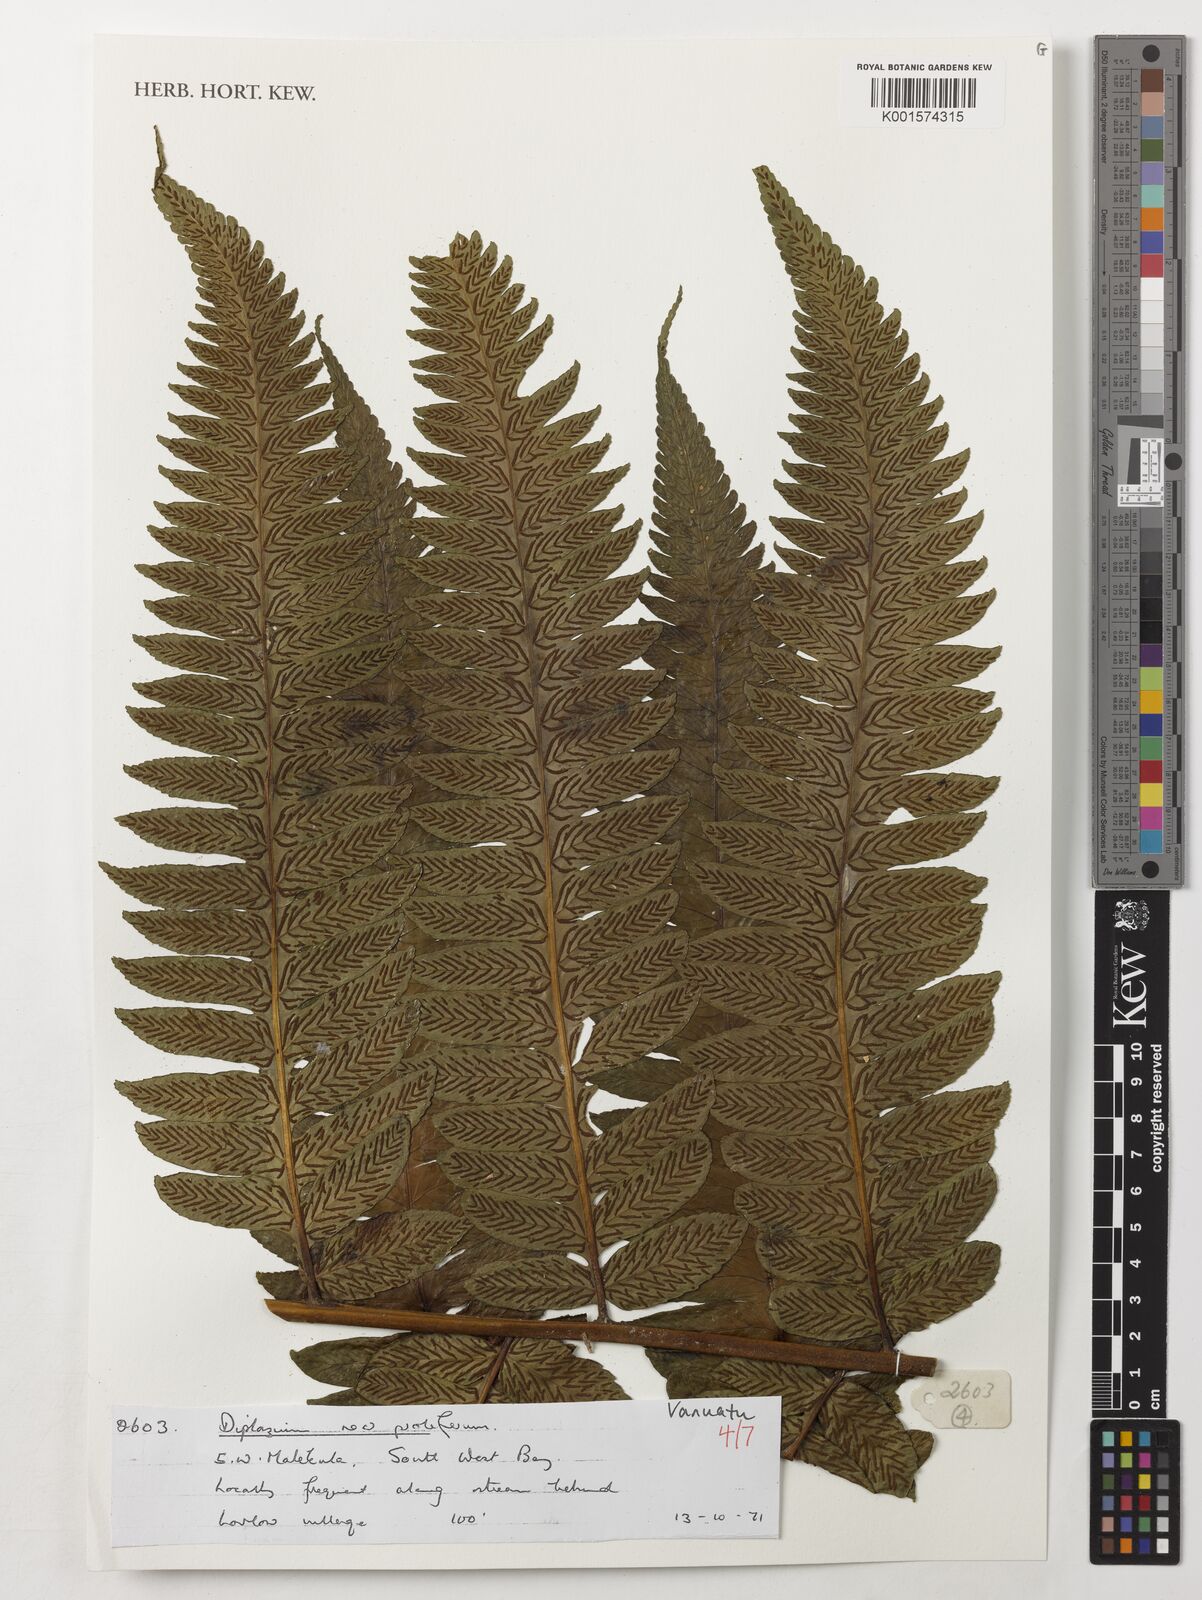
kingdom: Plantae
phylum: Tracheophyta
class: Polypodiopsida
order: Polypodiales
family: Athyriaceae
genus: Diplazium
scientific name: Diplazium proliferum
